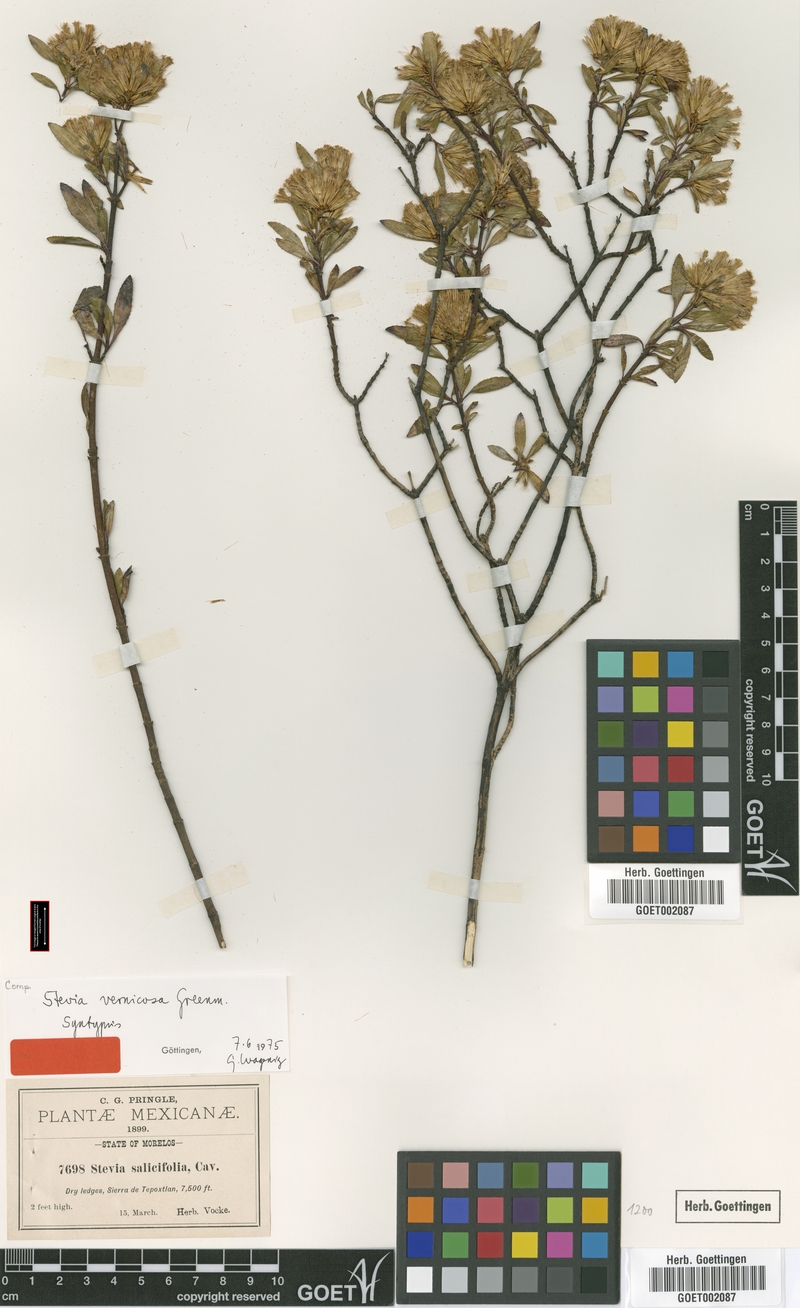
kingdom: Plantae
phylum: Tracheophyta
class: Magnoliopsida
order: Asterales
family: Asteraceae
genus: Stevia
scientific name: Stevia vernicosa
